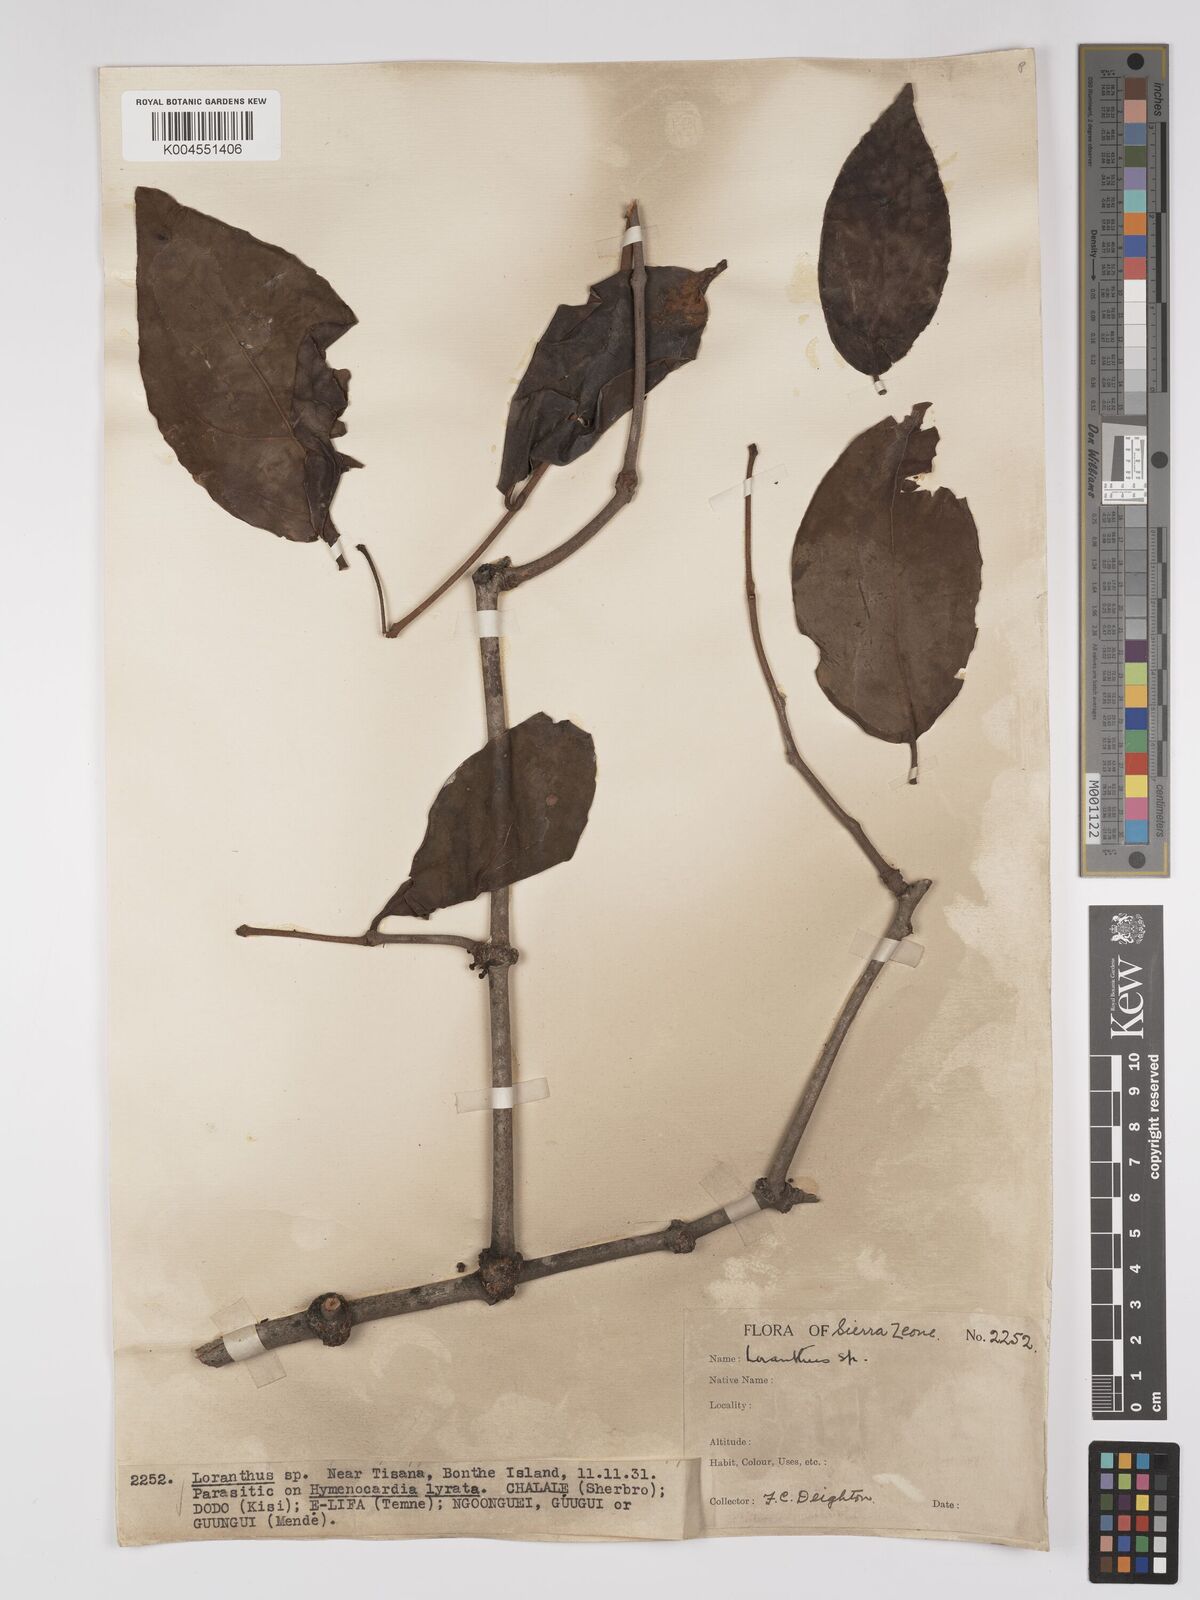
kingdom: Plantae
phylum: Tracheophyta
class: Magnoliopsida
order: Santalales
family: Loranthaceae
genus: Tapinanthus
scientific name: Tapinanthus bangwensis
